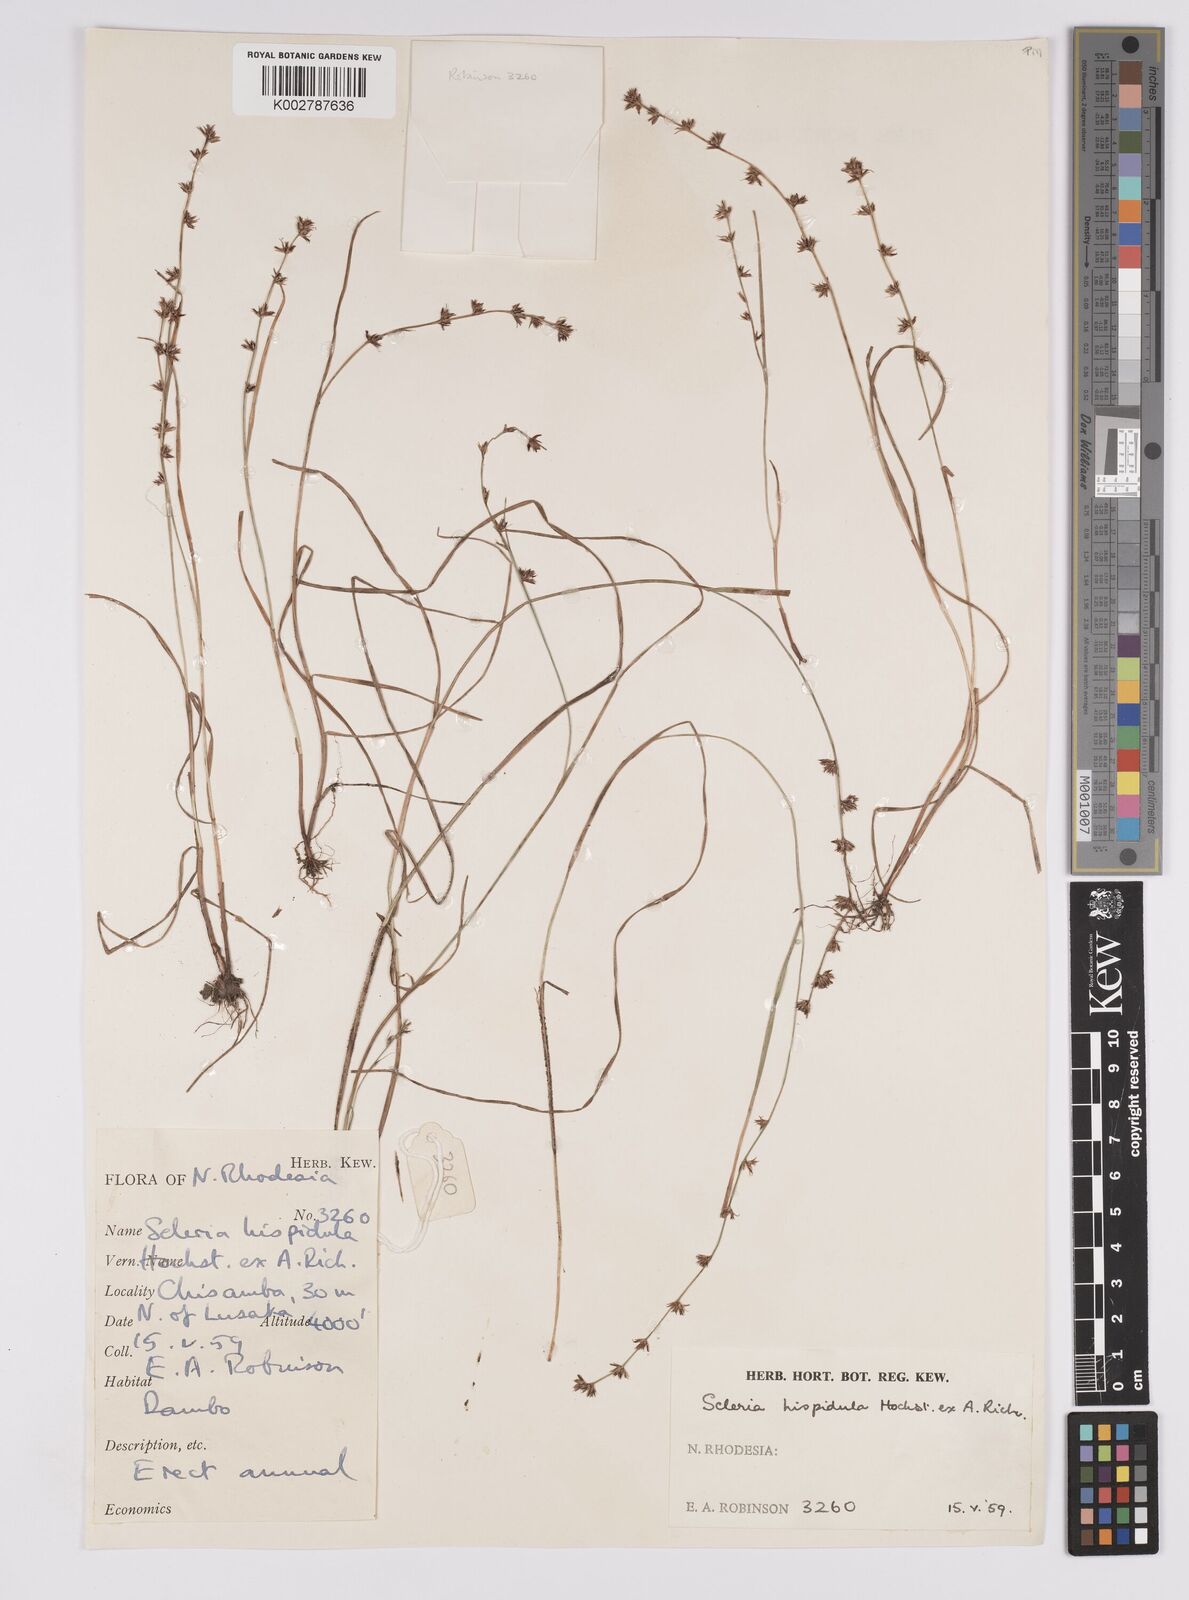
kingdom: Plantae
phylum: Tracheophyta
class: Liliopsida
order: Poales
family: Cyperaceae
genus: Scleria
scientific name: Scleria hispidula
